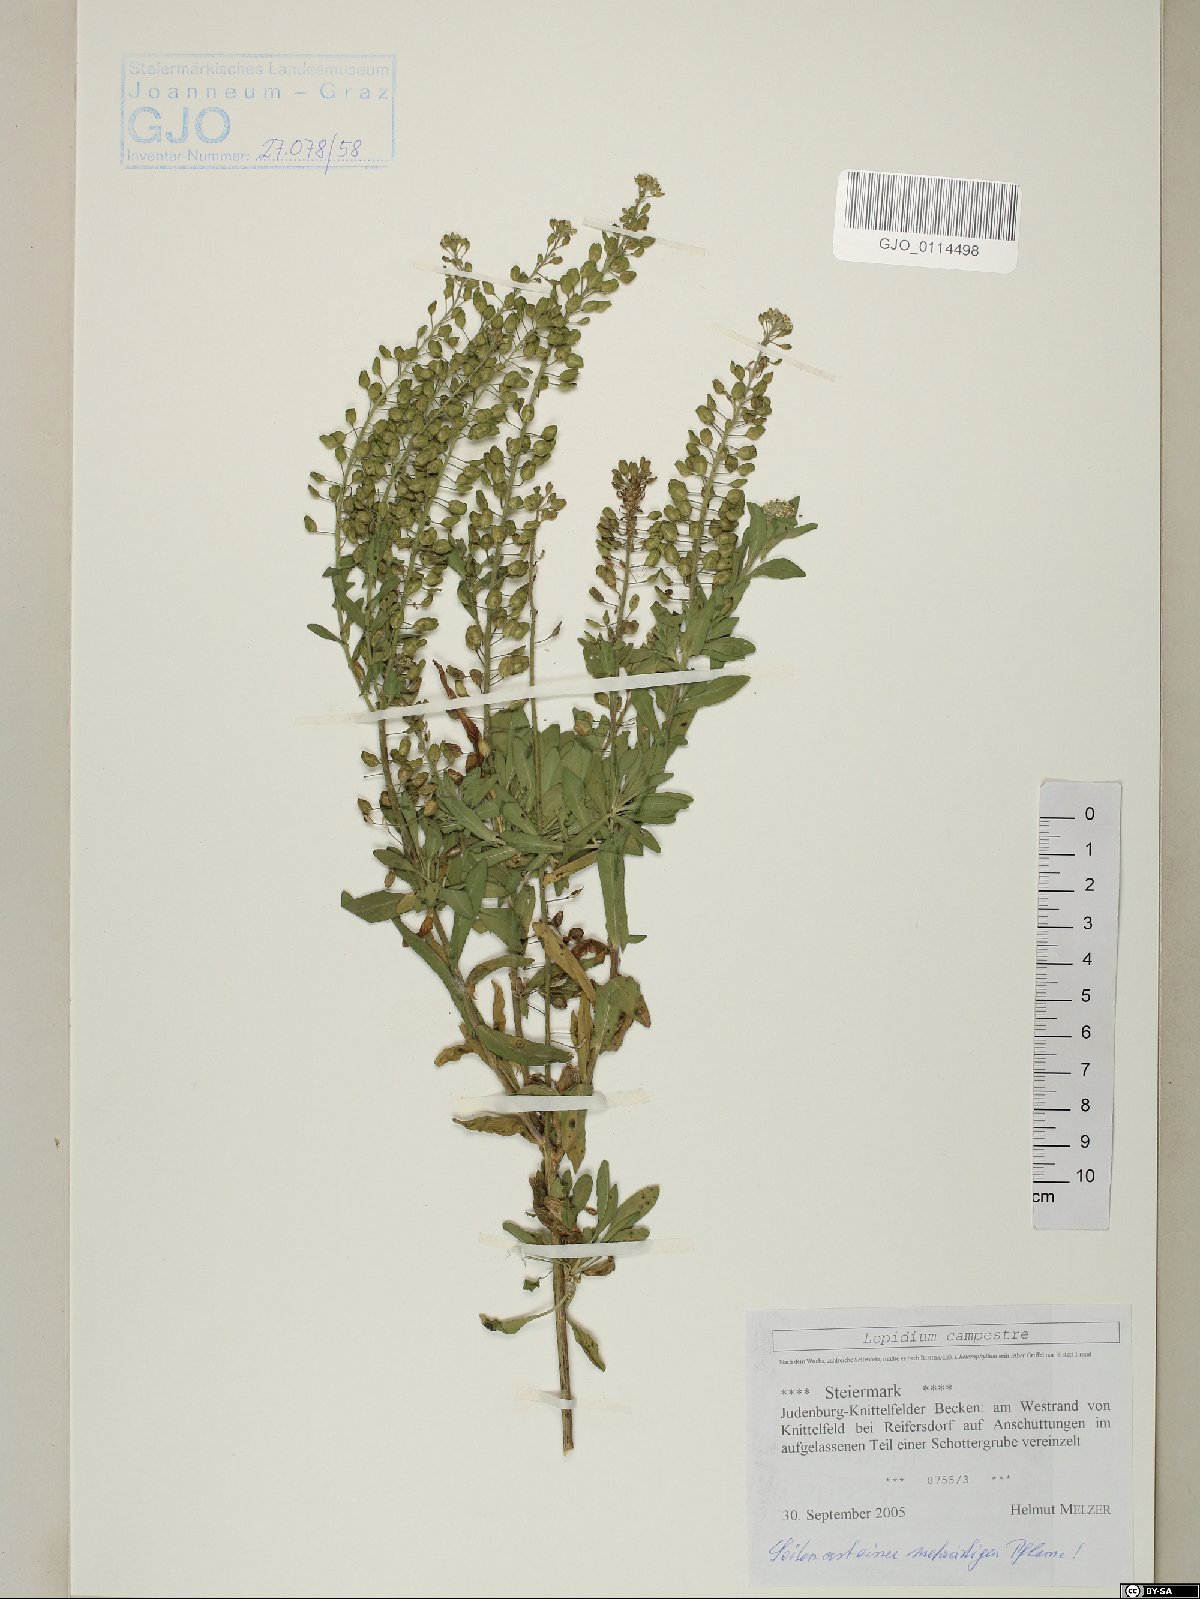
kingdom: Plantae
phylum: Tracheophyta
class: Magnoliopsida
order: Brassicales
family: Brassicaceae
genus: Lepidium
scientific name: Lepidium campestre
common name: Field pepperwort
